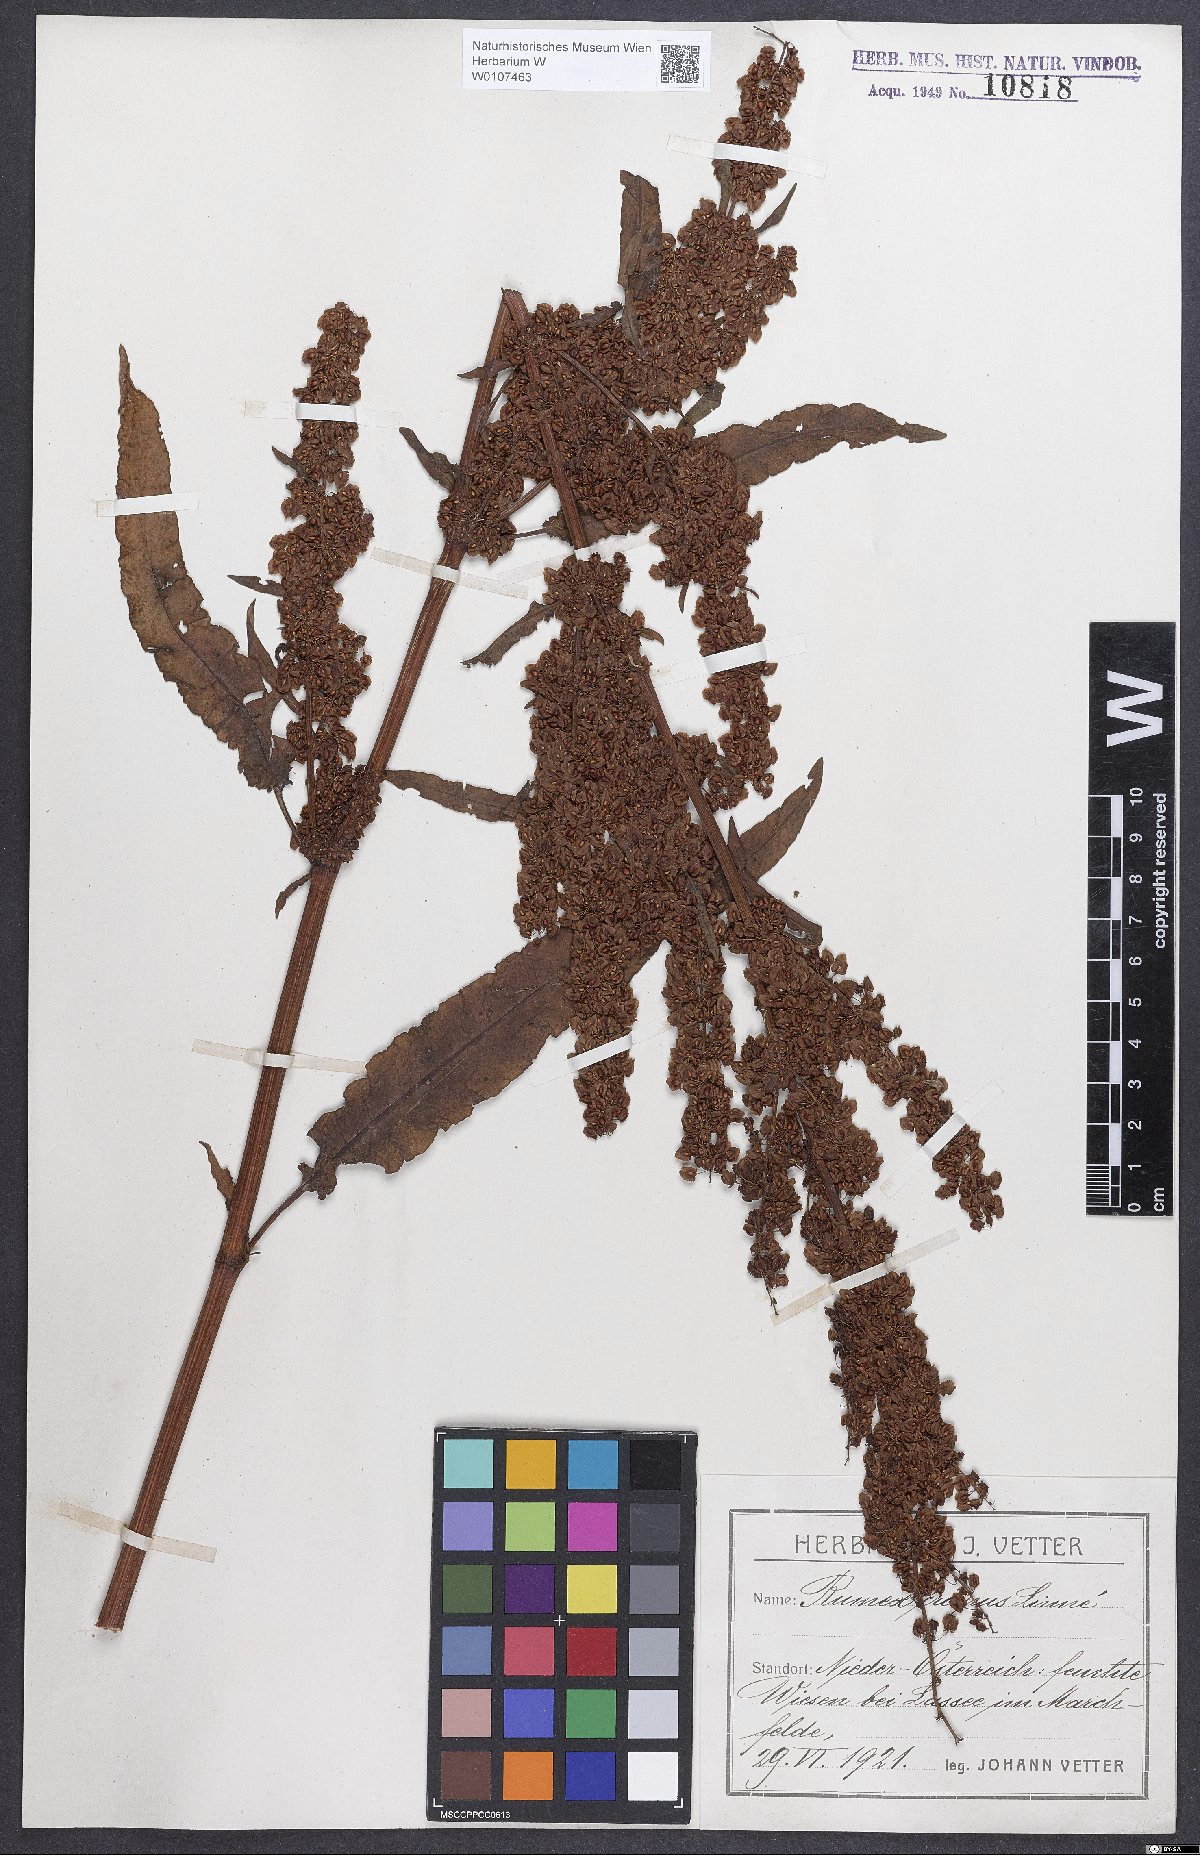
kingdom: Plantae
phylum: Tracheophyta
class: Magnoliopsida
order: Caryophyllales
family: Polygonaceae
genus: Rumex
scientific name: Rumex crispus
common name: Curled dock
